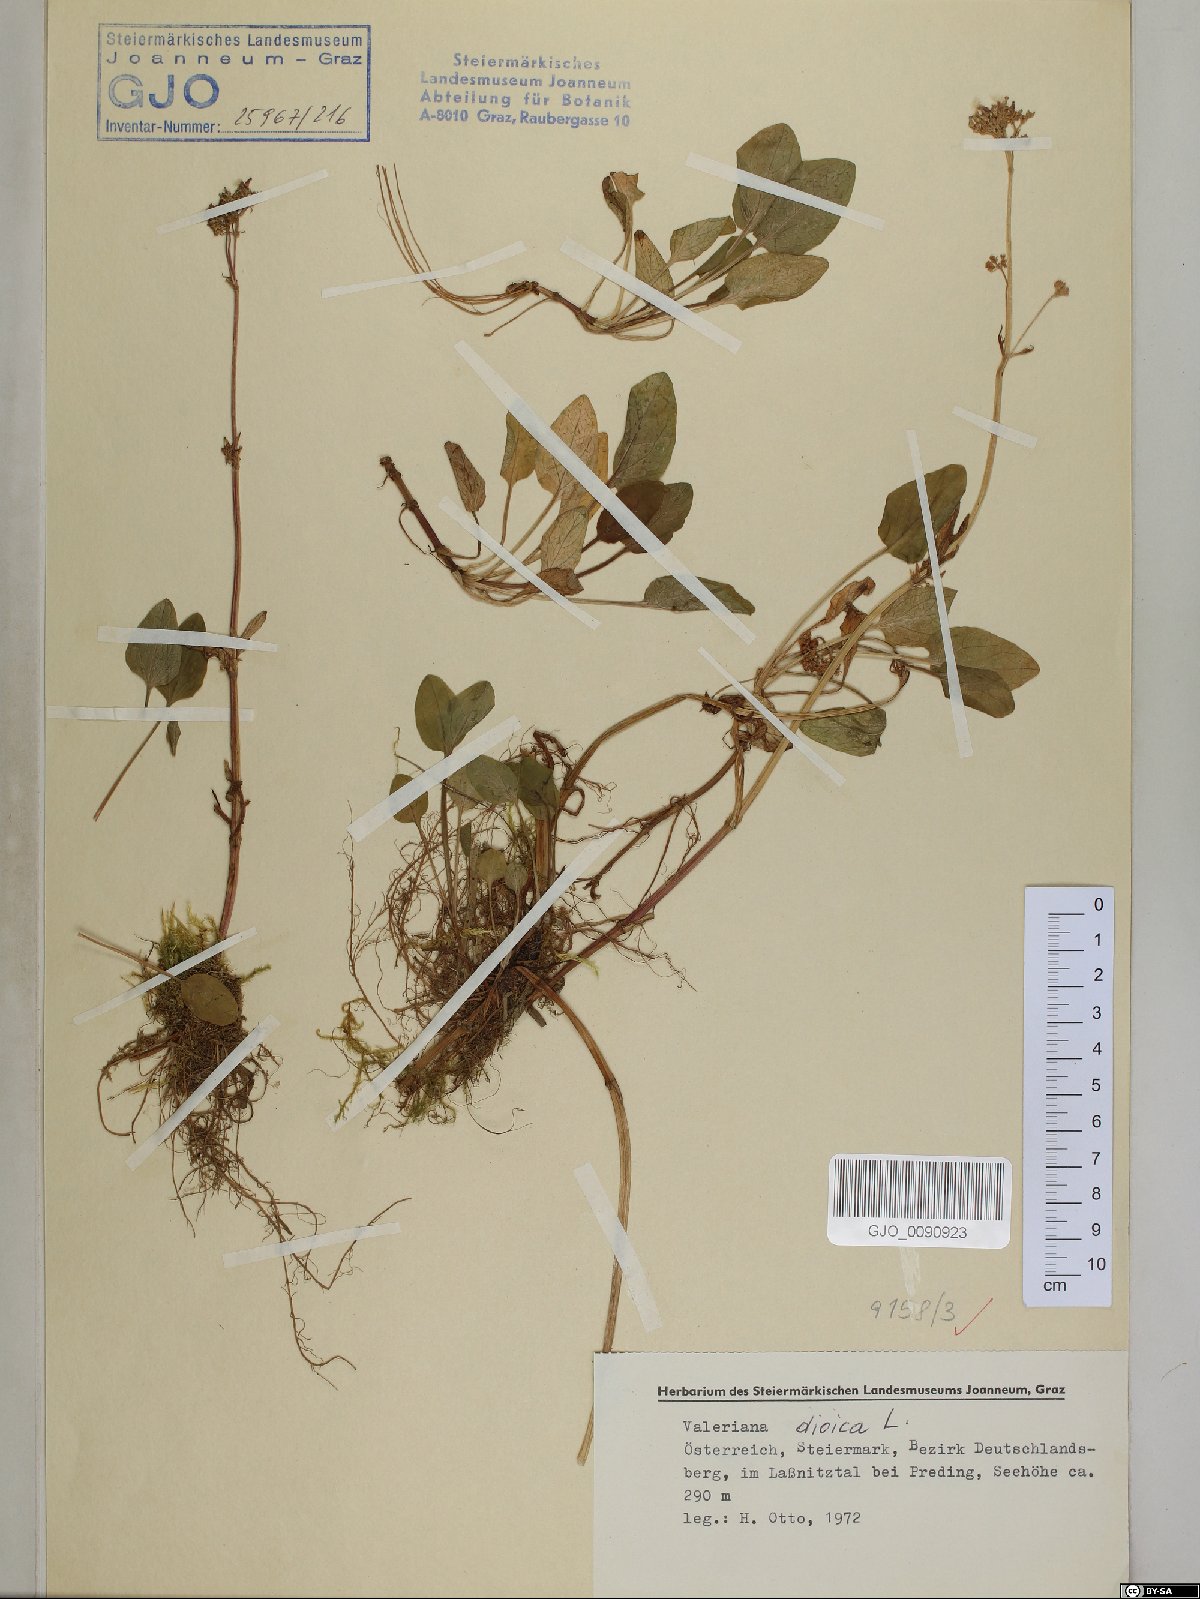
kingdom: Plantae
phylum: Tracheophyta
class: Magnoliopsida
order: Dipsacales
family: Caprifoliaceae
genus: Valeriana
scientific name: Valeriana dioica
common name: Marsh valerian
